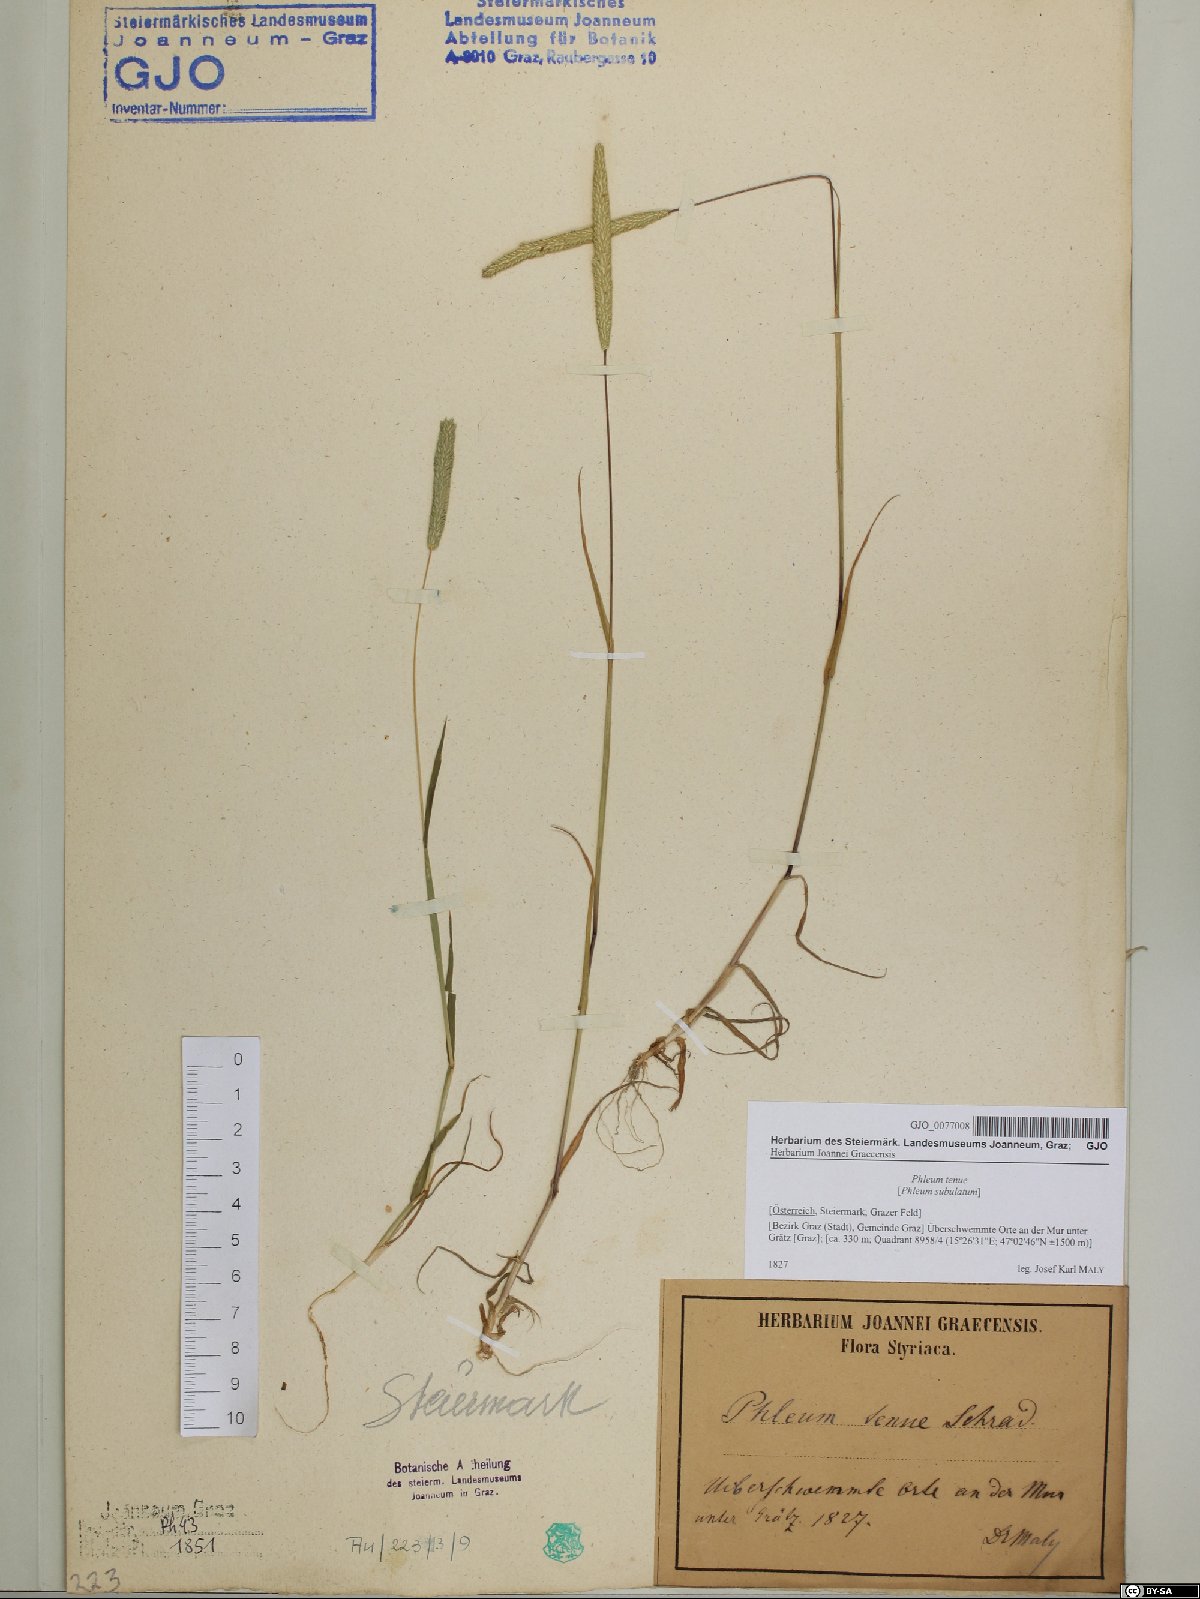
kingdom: Plantae
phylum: Tracheophyta
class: Liliopsida
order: Poales
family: Poaceae
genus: Phleum
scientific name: Phleum subulatum
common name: Italian timothy
